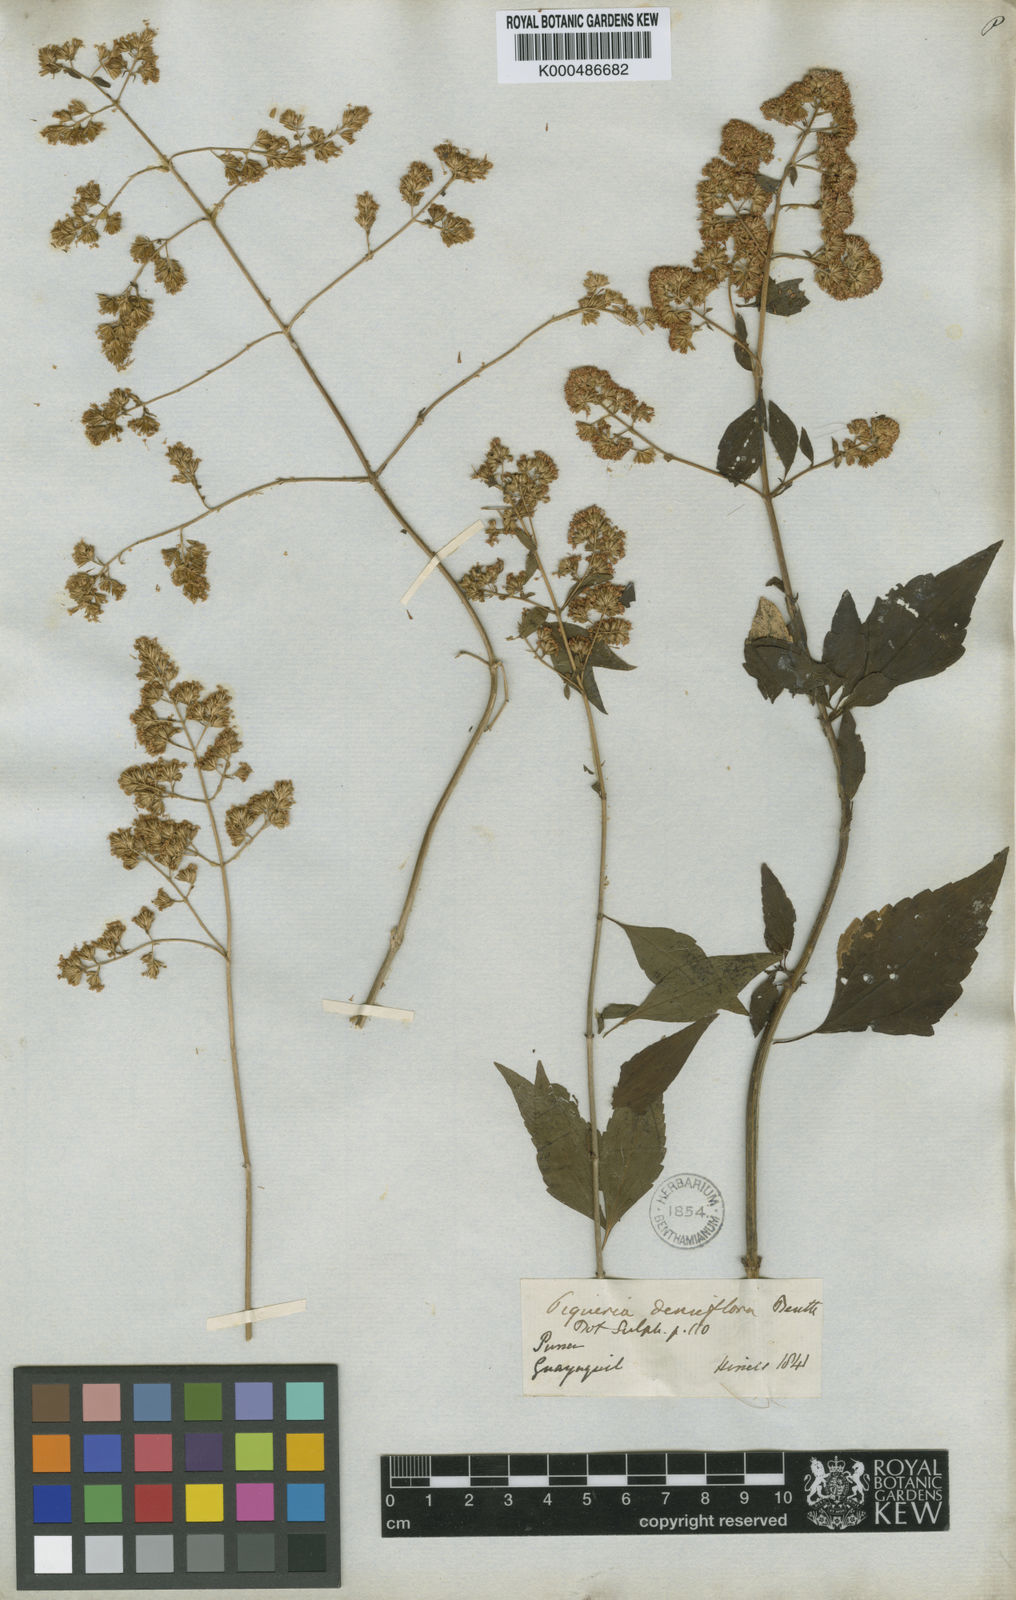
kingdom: Plantae
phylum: Tracheophyta
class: Magnoliopsida
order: Asterales
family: Asteraceae
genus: Ophryosporus
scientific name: Ophryosporus densiflorus
